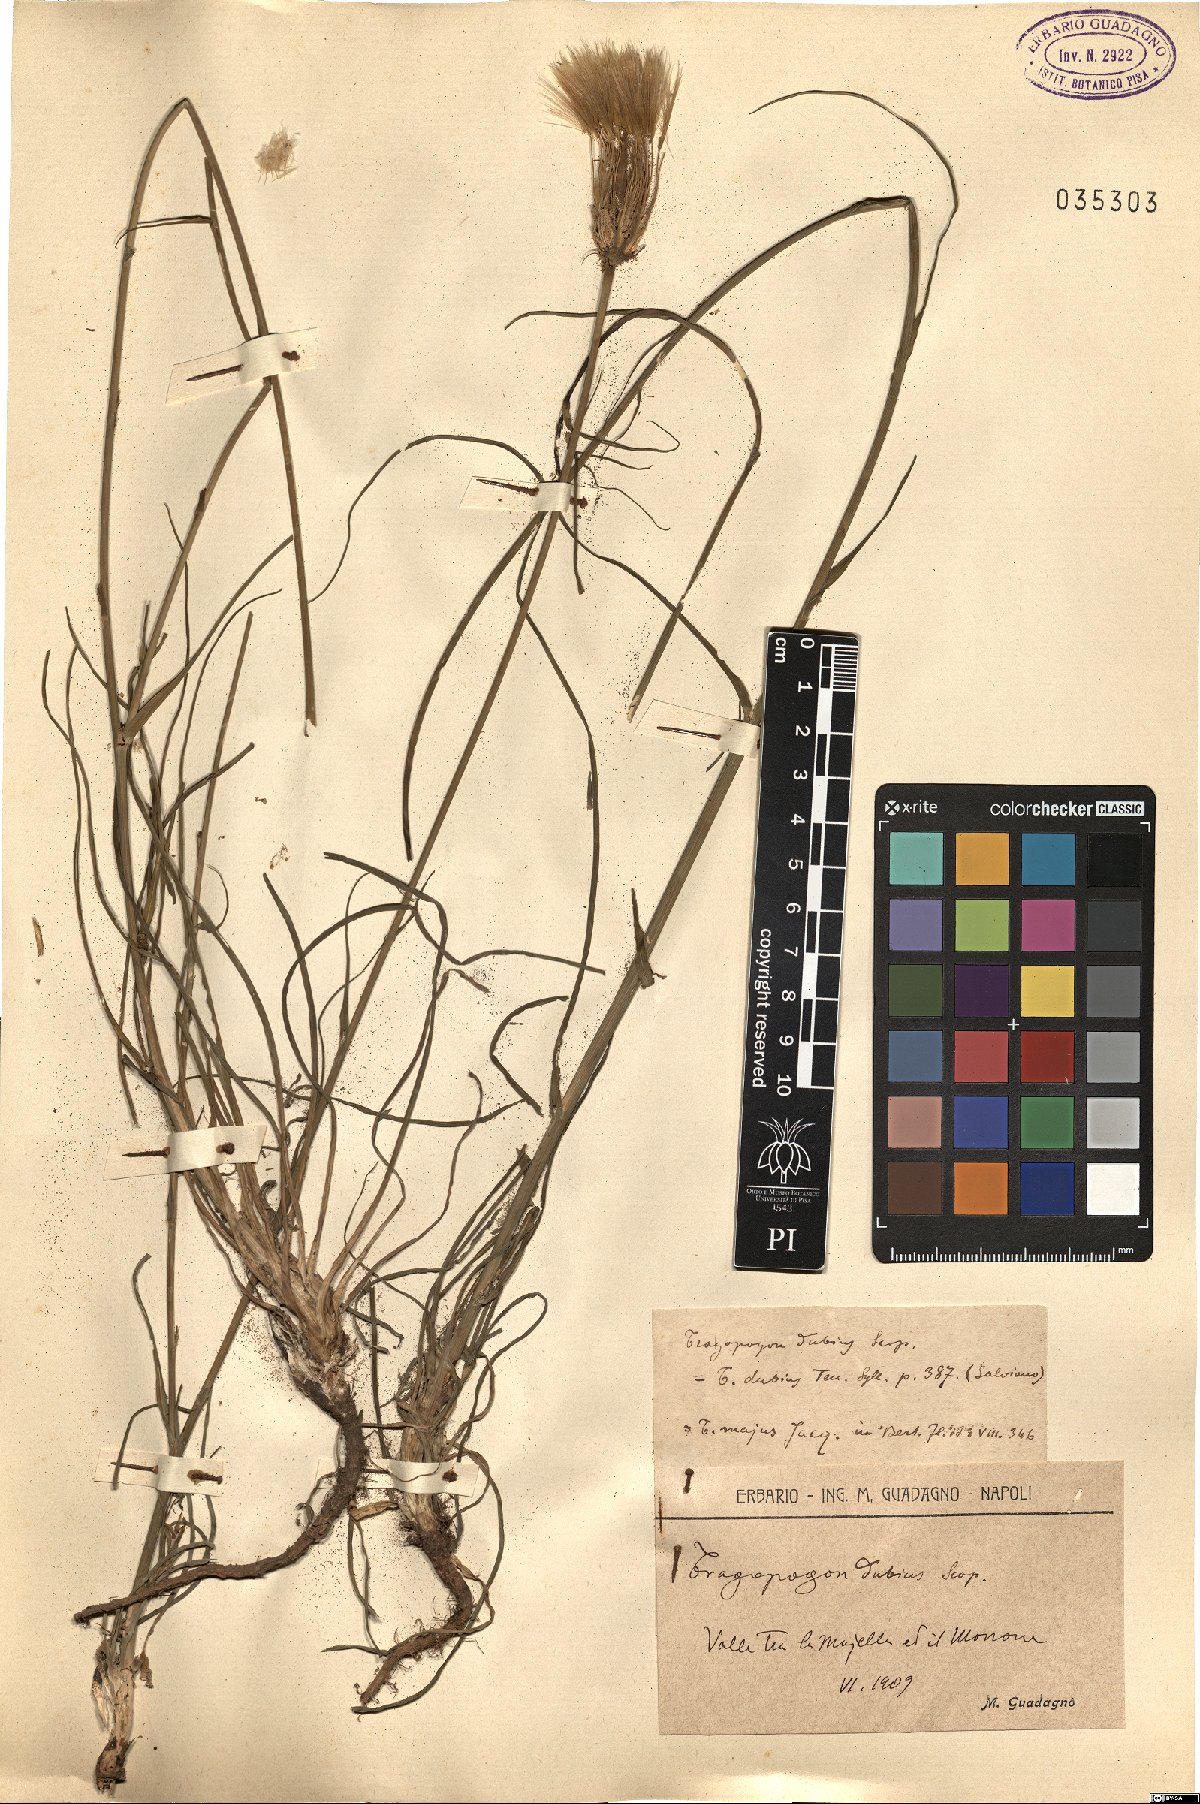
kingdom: Plantae
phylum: Tracheophyta
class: Magnoliopsida
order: Asterales
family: Asteraceae
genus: Tragopogon
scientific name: Tragopogon dubius
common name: Yellow salsify
